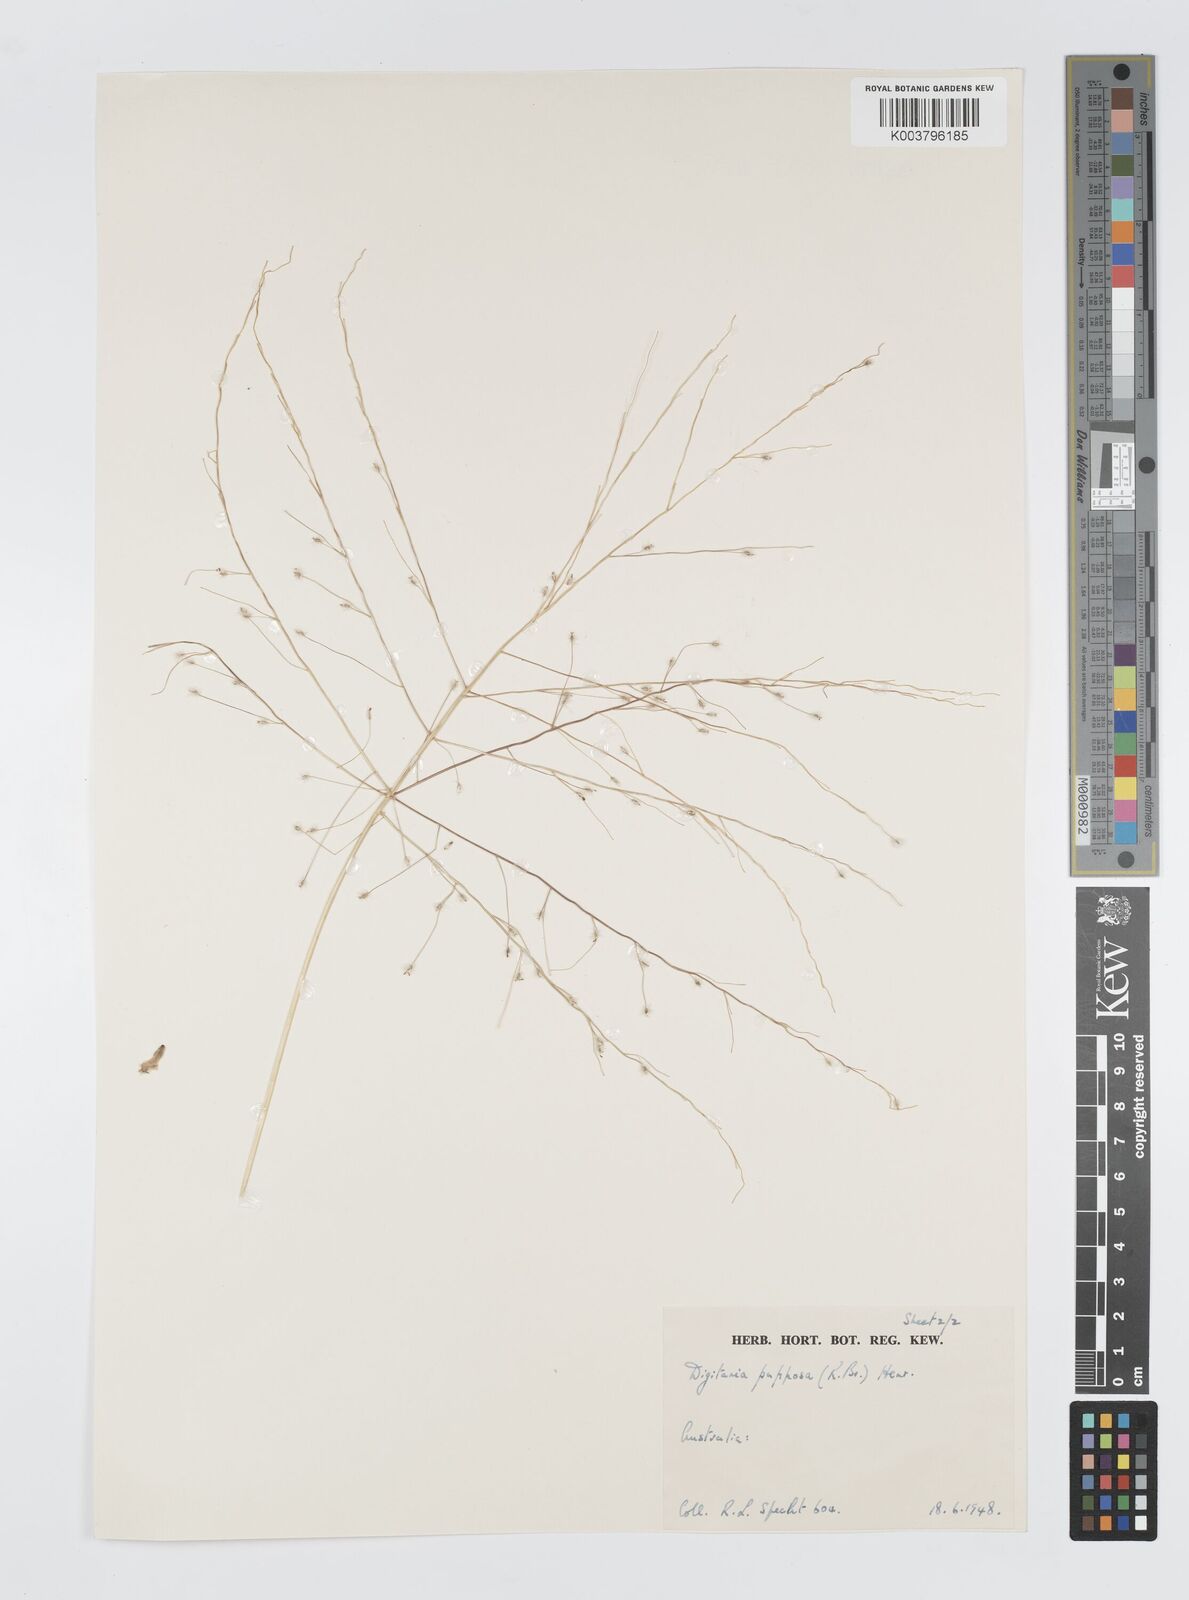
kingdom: Plantae
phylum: Tracheophyta
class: Liliopsida
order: Poales
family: Poaceae
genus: Digitaria
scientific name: Digitaria papposa
